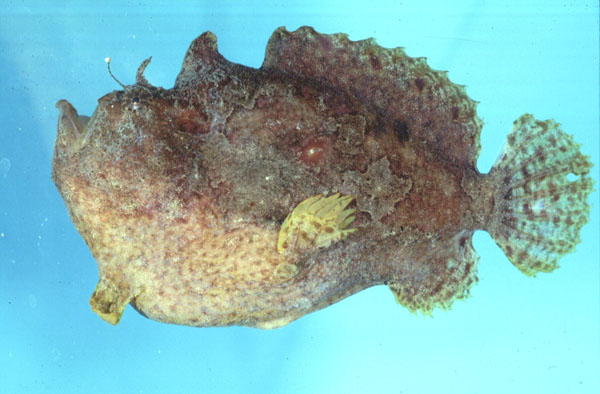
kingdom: Animalia
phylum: Chordata
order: Lophiiformes
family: Antennariidae
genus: Antennatus
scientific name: Antennatus coccineus
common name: Scarlet frogfish
